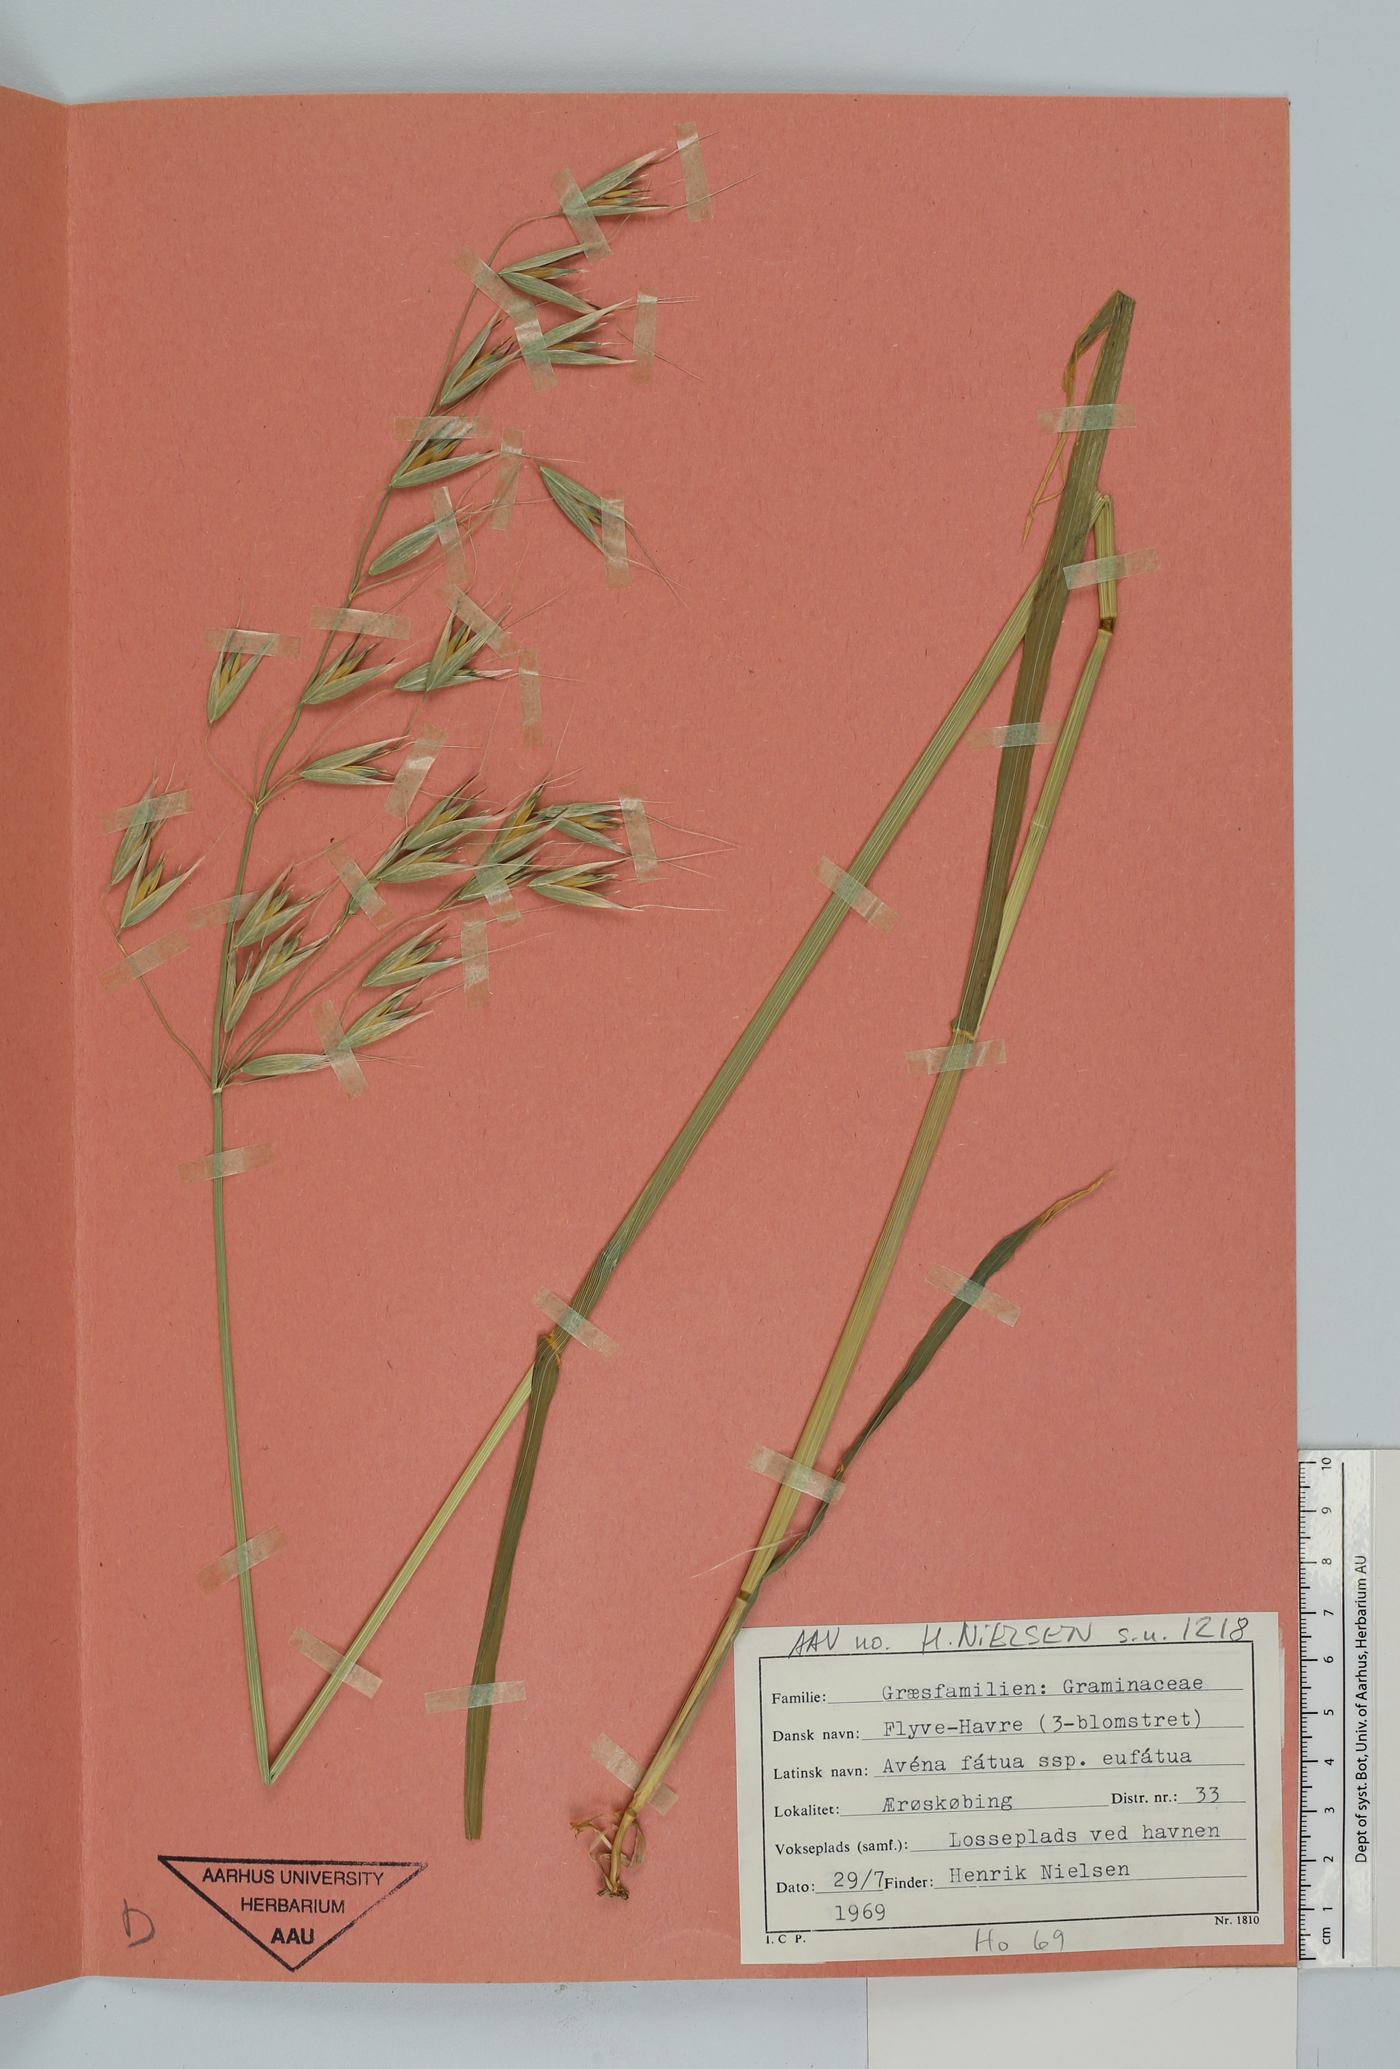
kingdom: Plantae
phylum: Tracheophyta
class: Liliopsida
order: Poales
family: Poaceae
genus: Avena
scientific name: Avena fatua
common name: Wild oat
